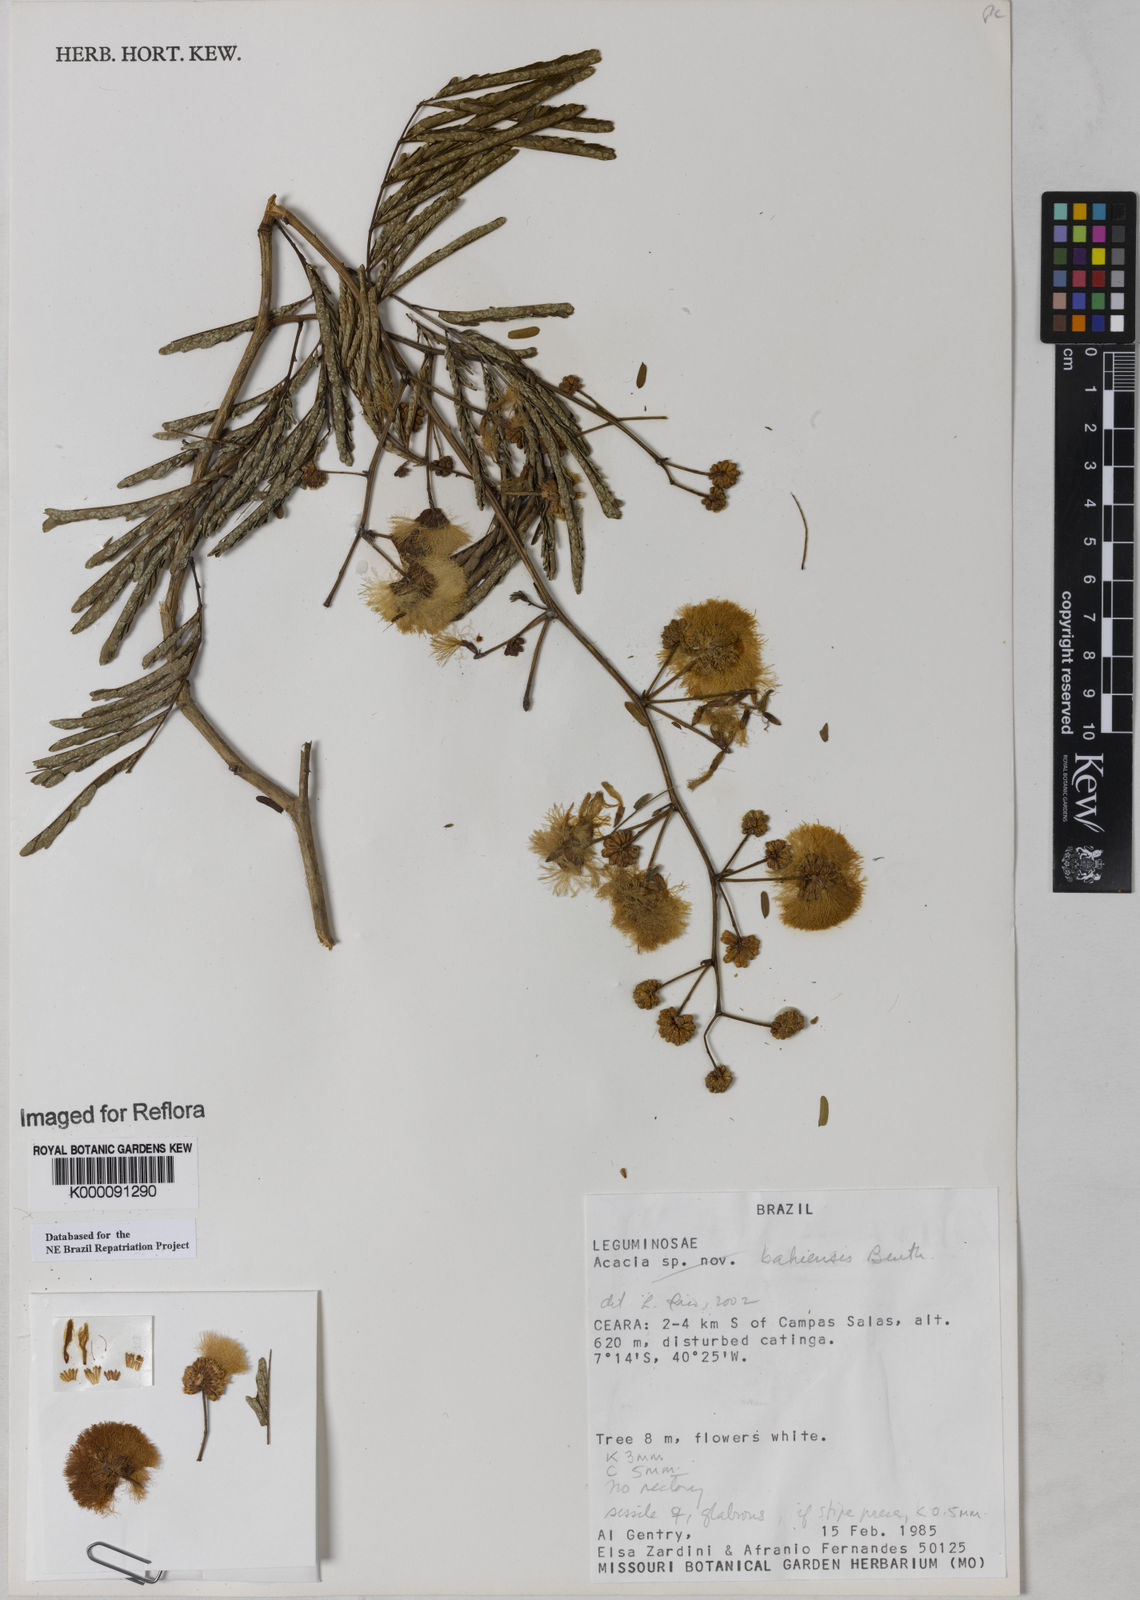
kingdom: Plantae
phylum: Tracheophyta
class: Magnoliopsida
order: Fabales
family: Fabaceae
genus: Senegalia
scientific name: Senegalia bahiensis
